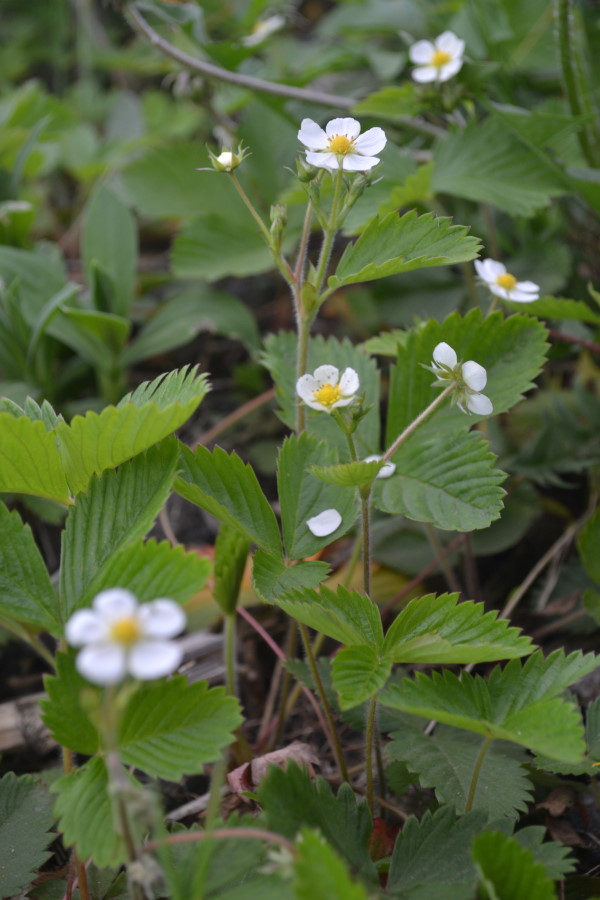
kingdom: Plantae
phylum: Tracheophyta
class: Magnoliopsida
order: Rosales
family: Rosaceae
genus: Fragaria
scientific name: Fragaria vesca
